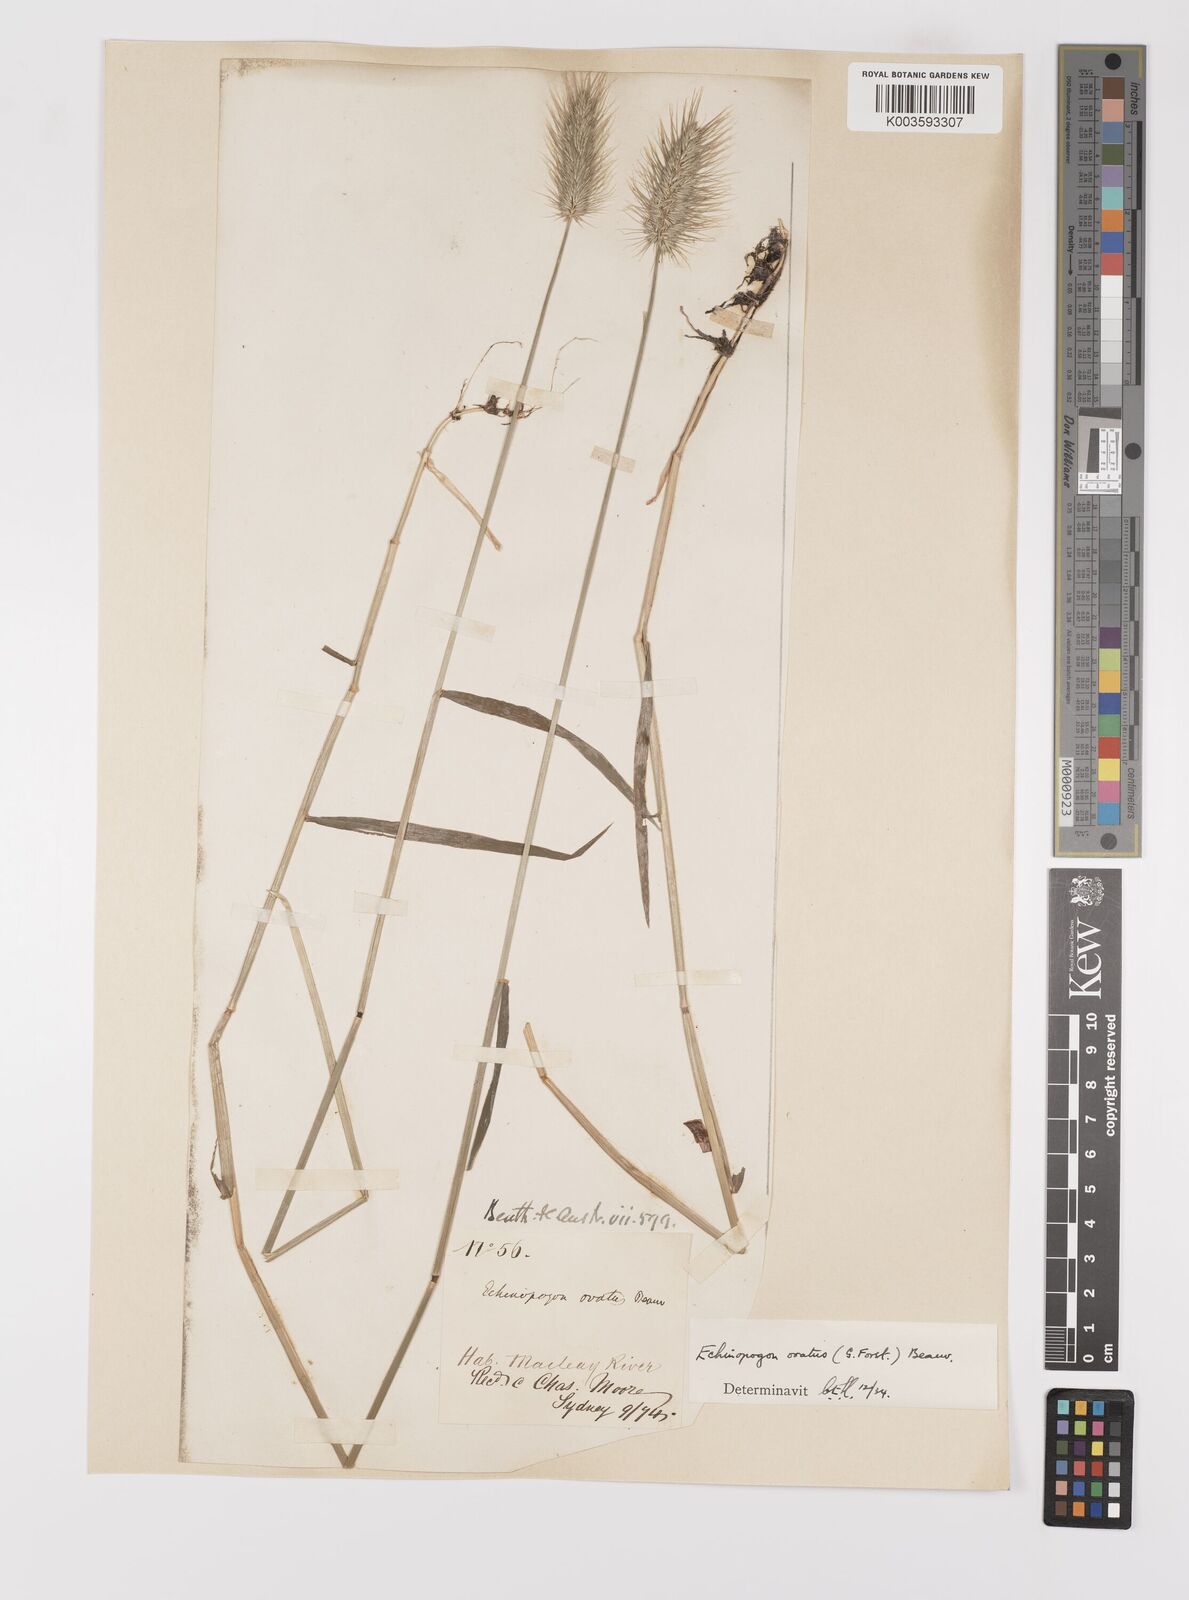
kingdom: Plantae
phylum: Tracheophyta
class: Liliopsida
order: Poales
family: Poaceae
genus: Echinopogon
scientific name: Echinopogon ovatus
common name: Hedgehog-grass
